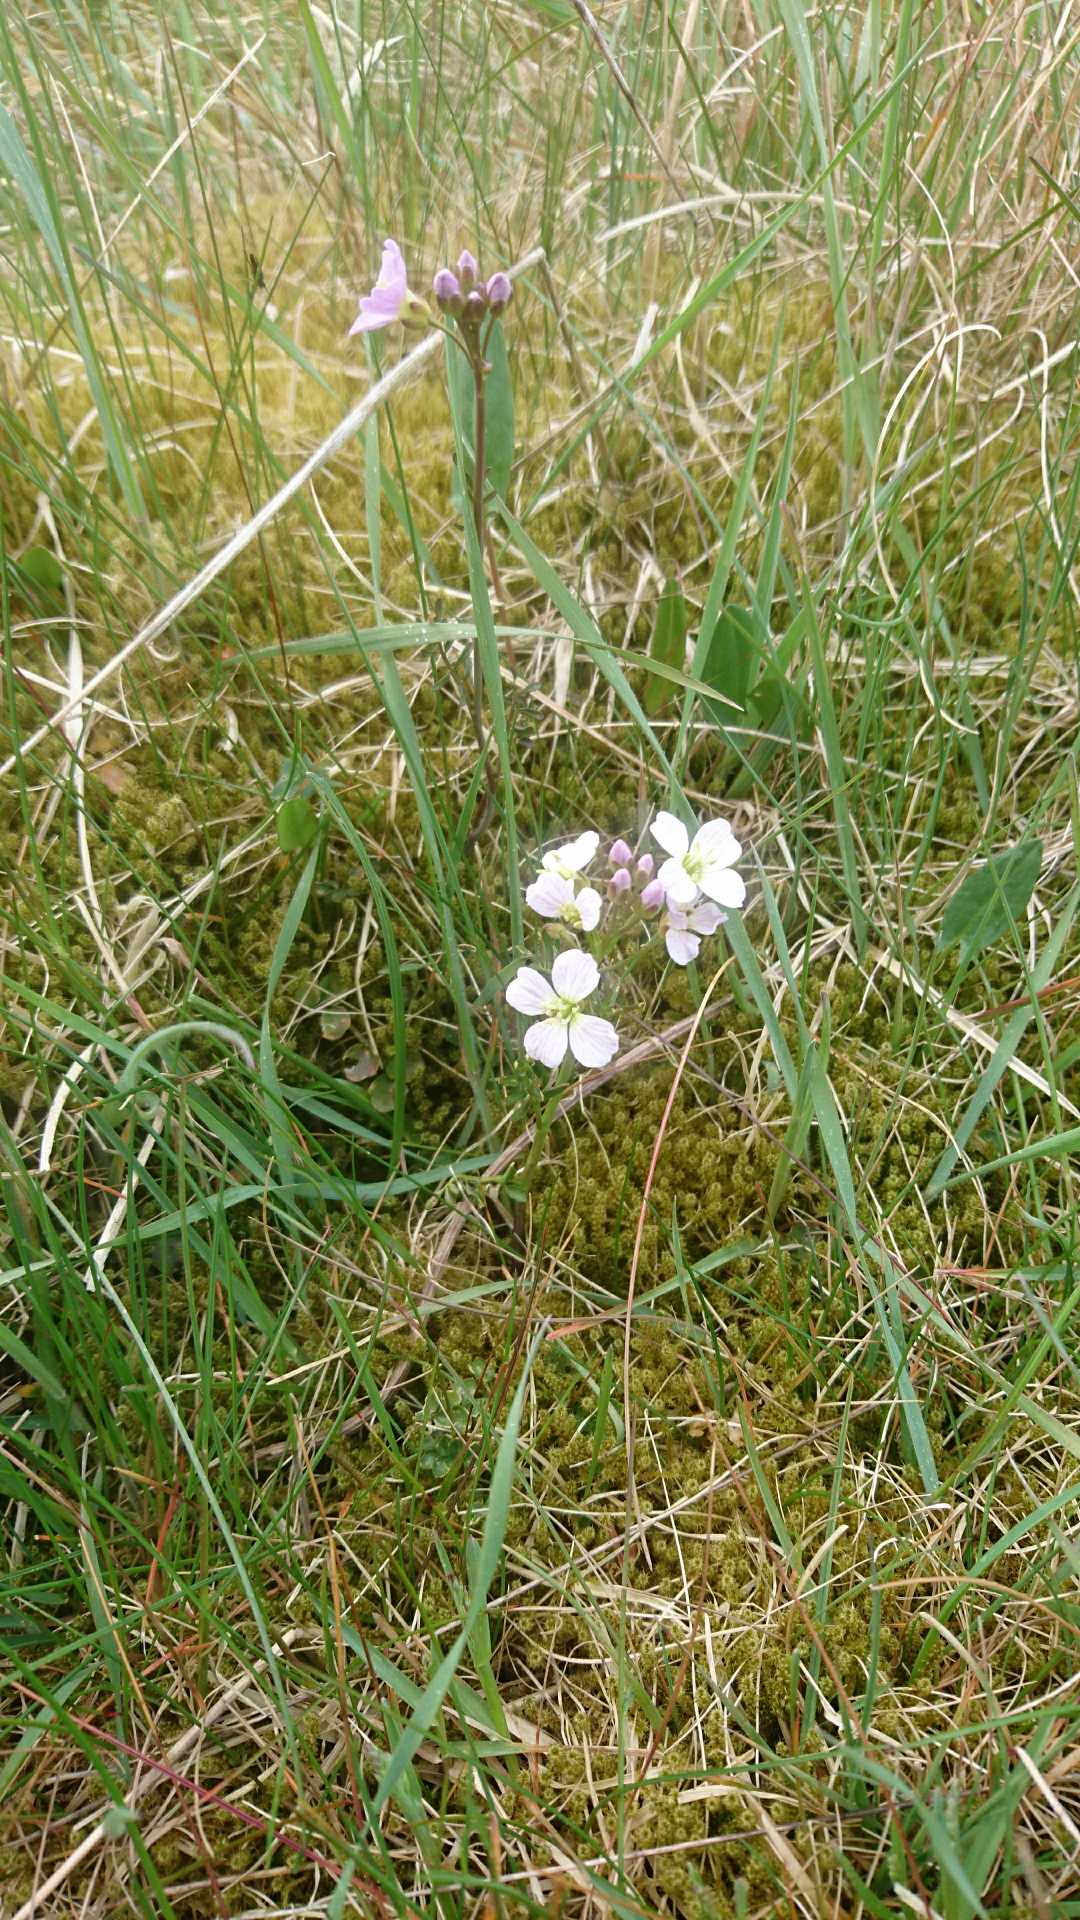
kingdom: Plantae
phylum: Tracheophyta
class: Magnoliopsida
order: Brassicales
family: Brassicaceae
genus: Cardamine
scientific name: Cardamine pratensis
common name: Engkarse
